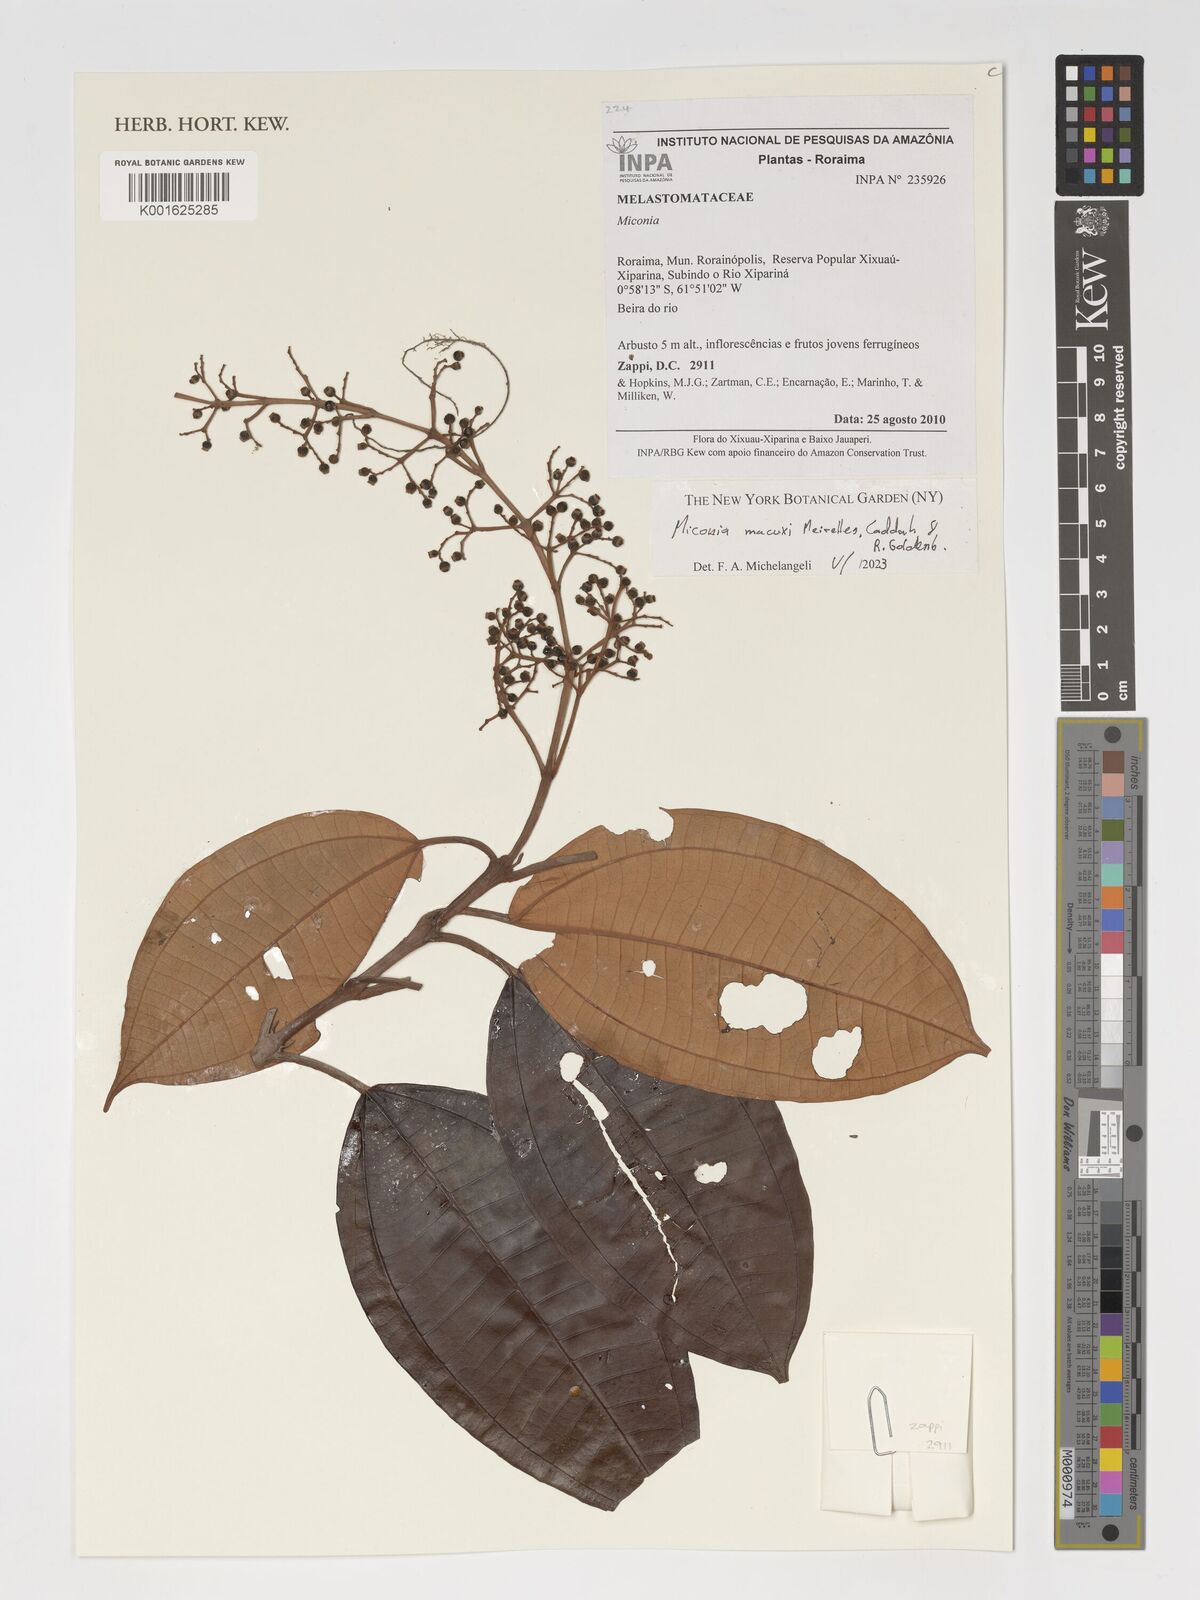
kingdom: Plantae
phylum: Tracheophyta
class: Magnoliopsida
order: Myrtales
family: Melastomataceae
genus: Miconia
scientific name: Miconia macuxi
